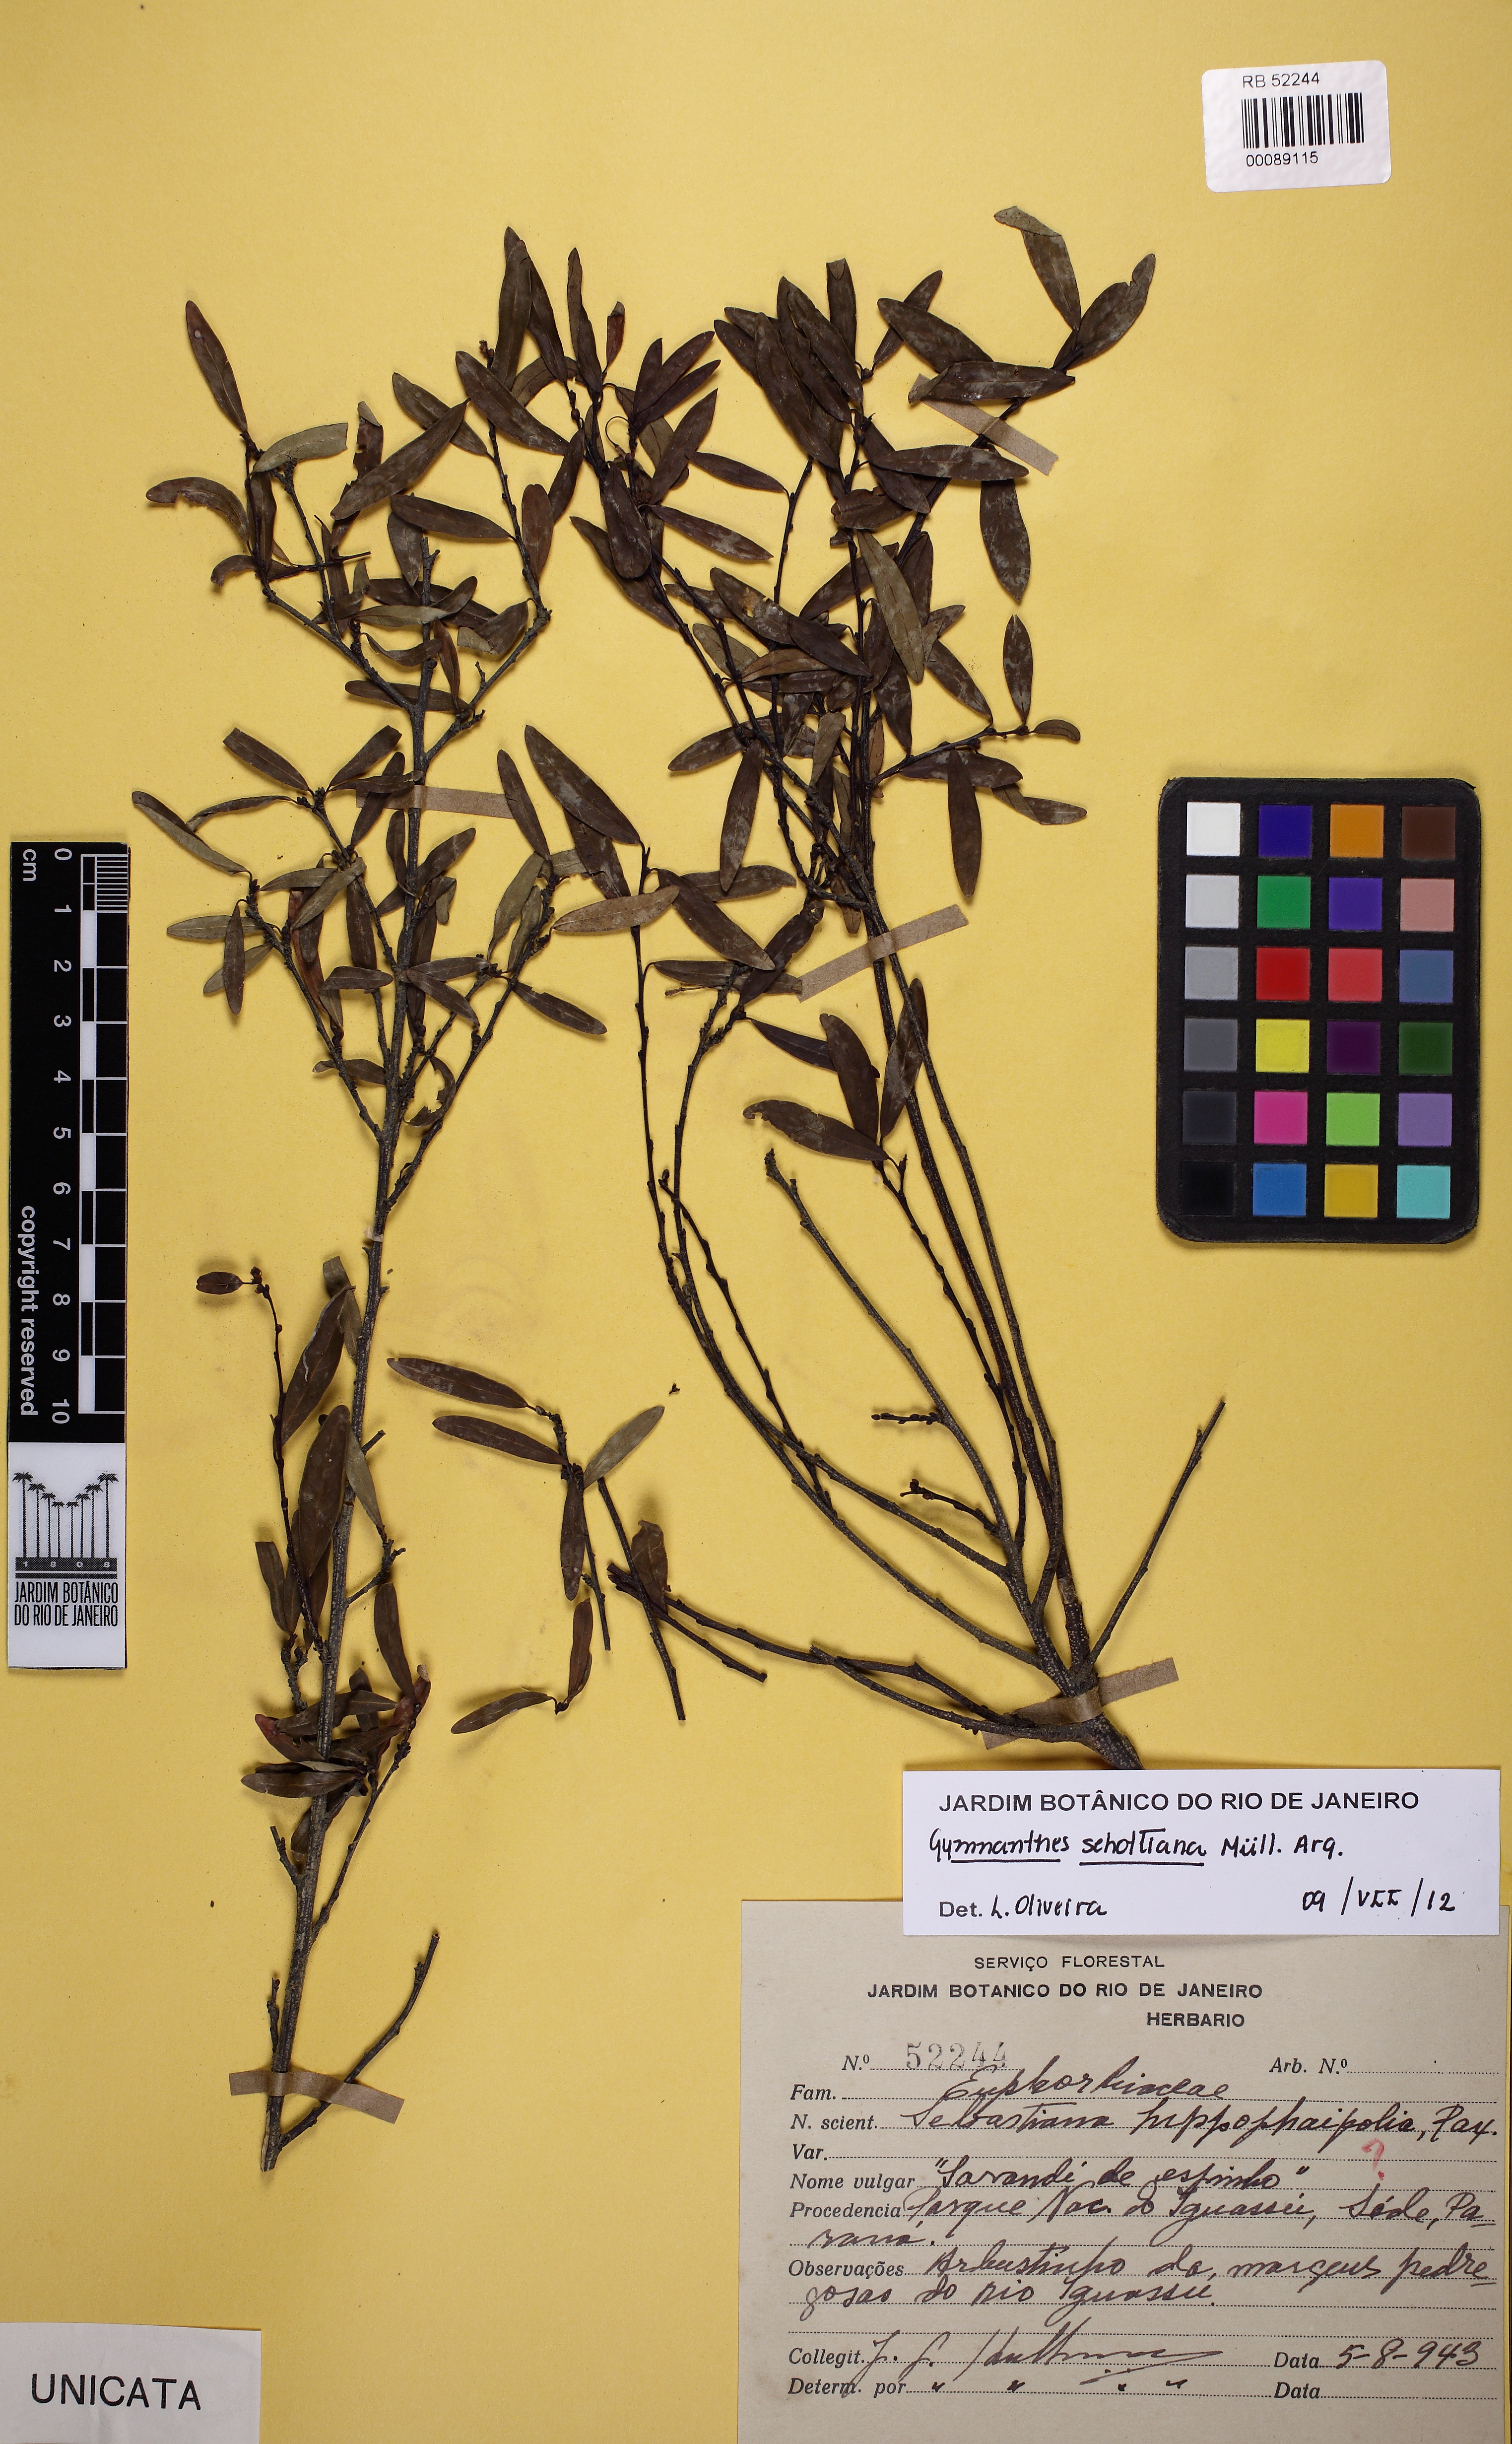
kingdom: Plantae
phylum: Tracheophyta
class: Magnoliopsida
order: Malpighiales
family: Euphorbiaceae
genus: Sebastiania
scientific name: Sebastiania schottiana
